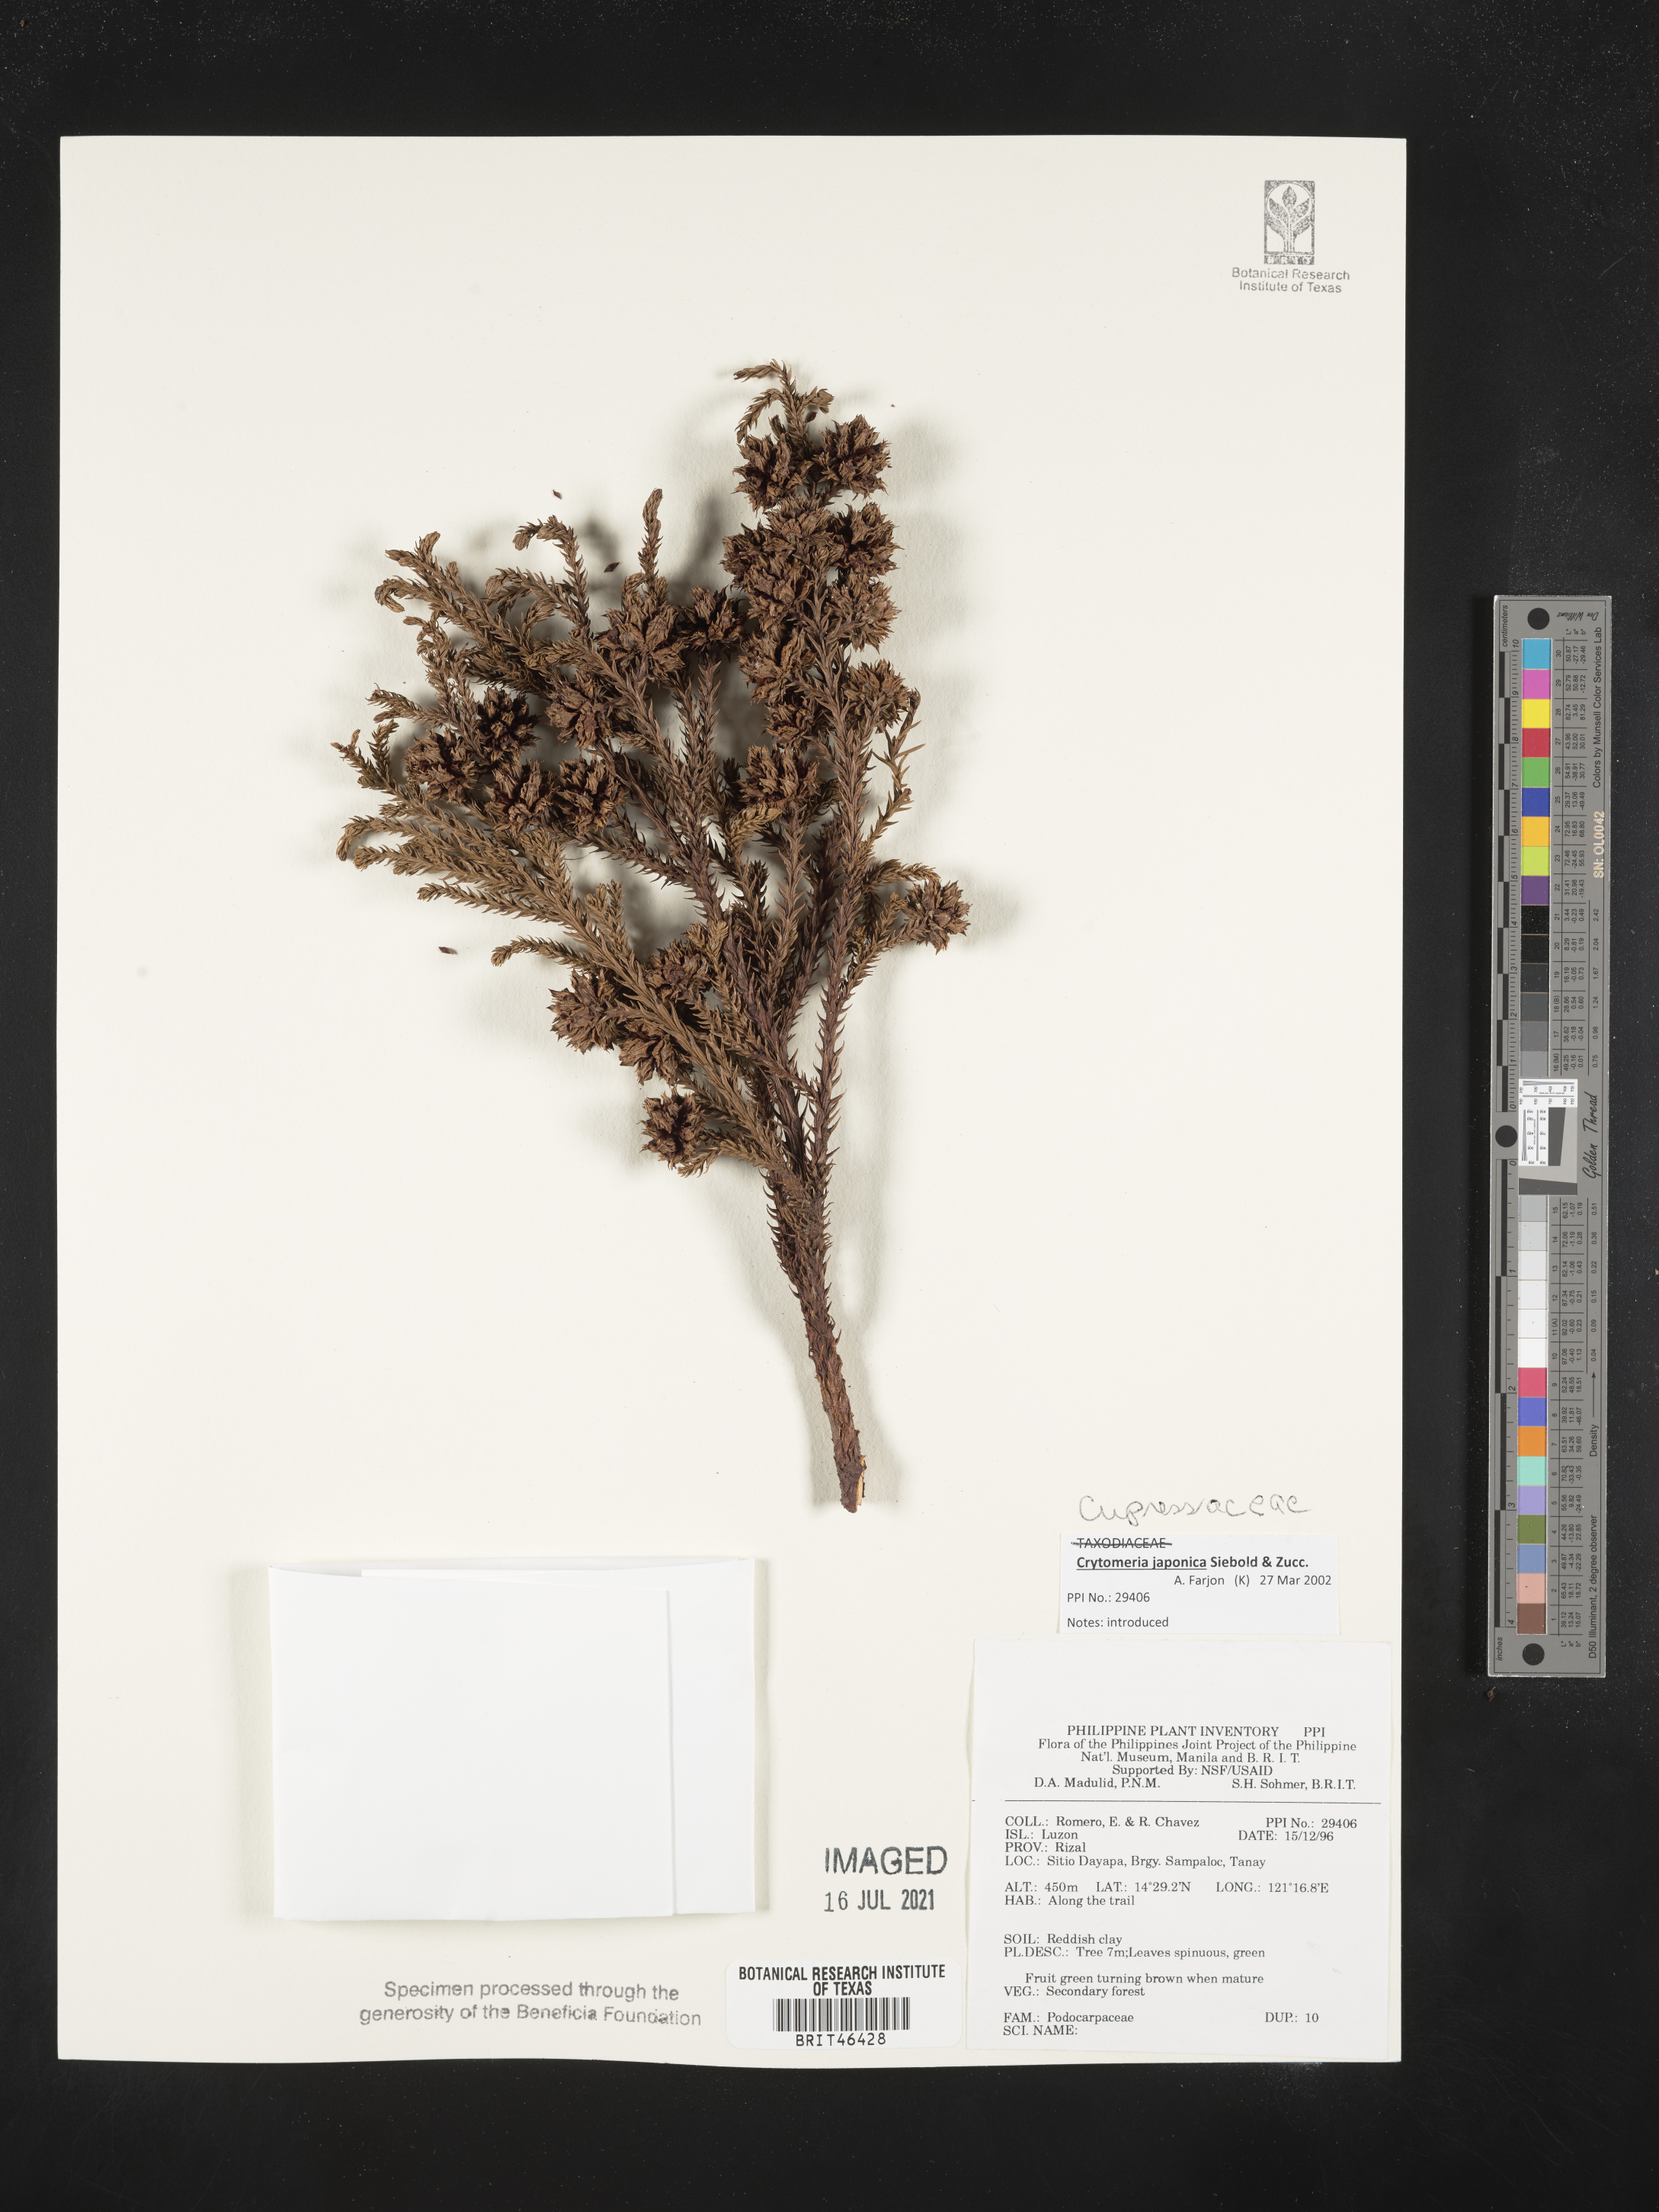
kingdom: Plantae
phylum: Tracheophyta
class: Pinopsida
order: Pinales
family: Podocarpaceae
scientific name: Podocarpaceae
